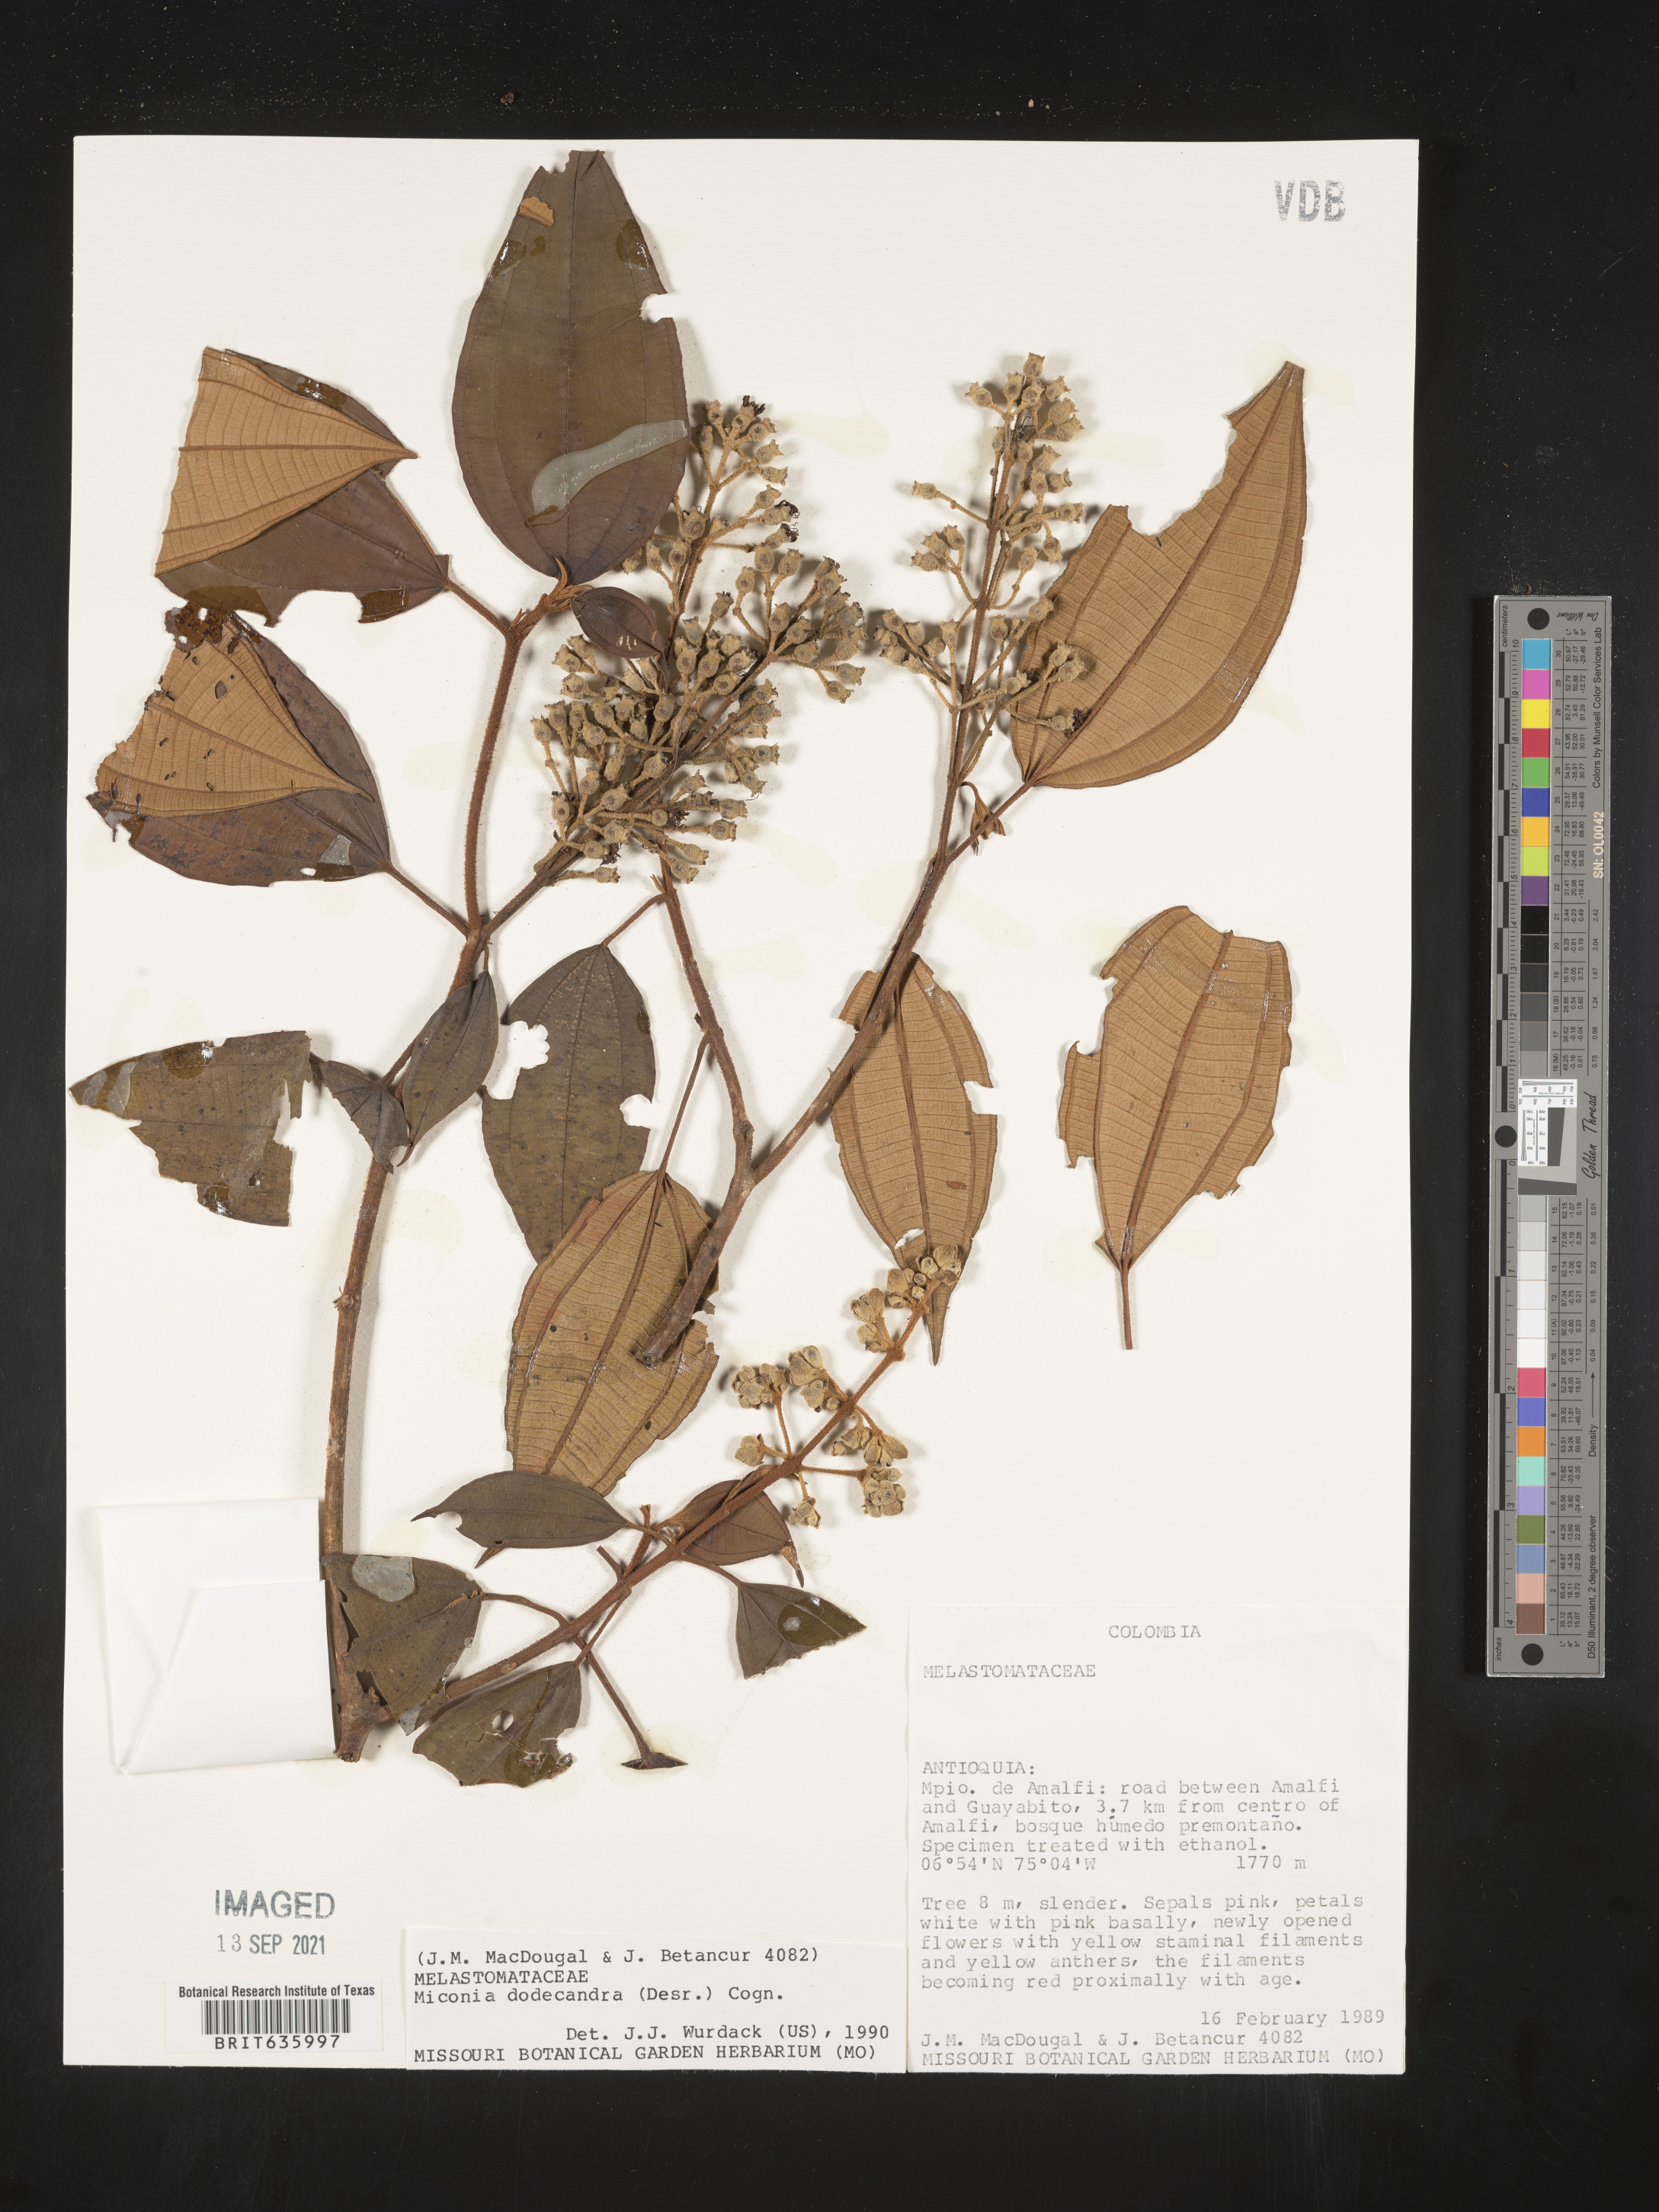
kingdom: Plantae
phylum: Tracheophyta
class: Magnoliopsida
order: Myrtales
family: Melastomataceae
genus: Miconia
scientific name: Miconia
